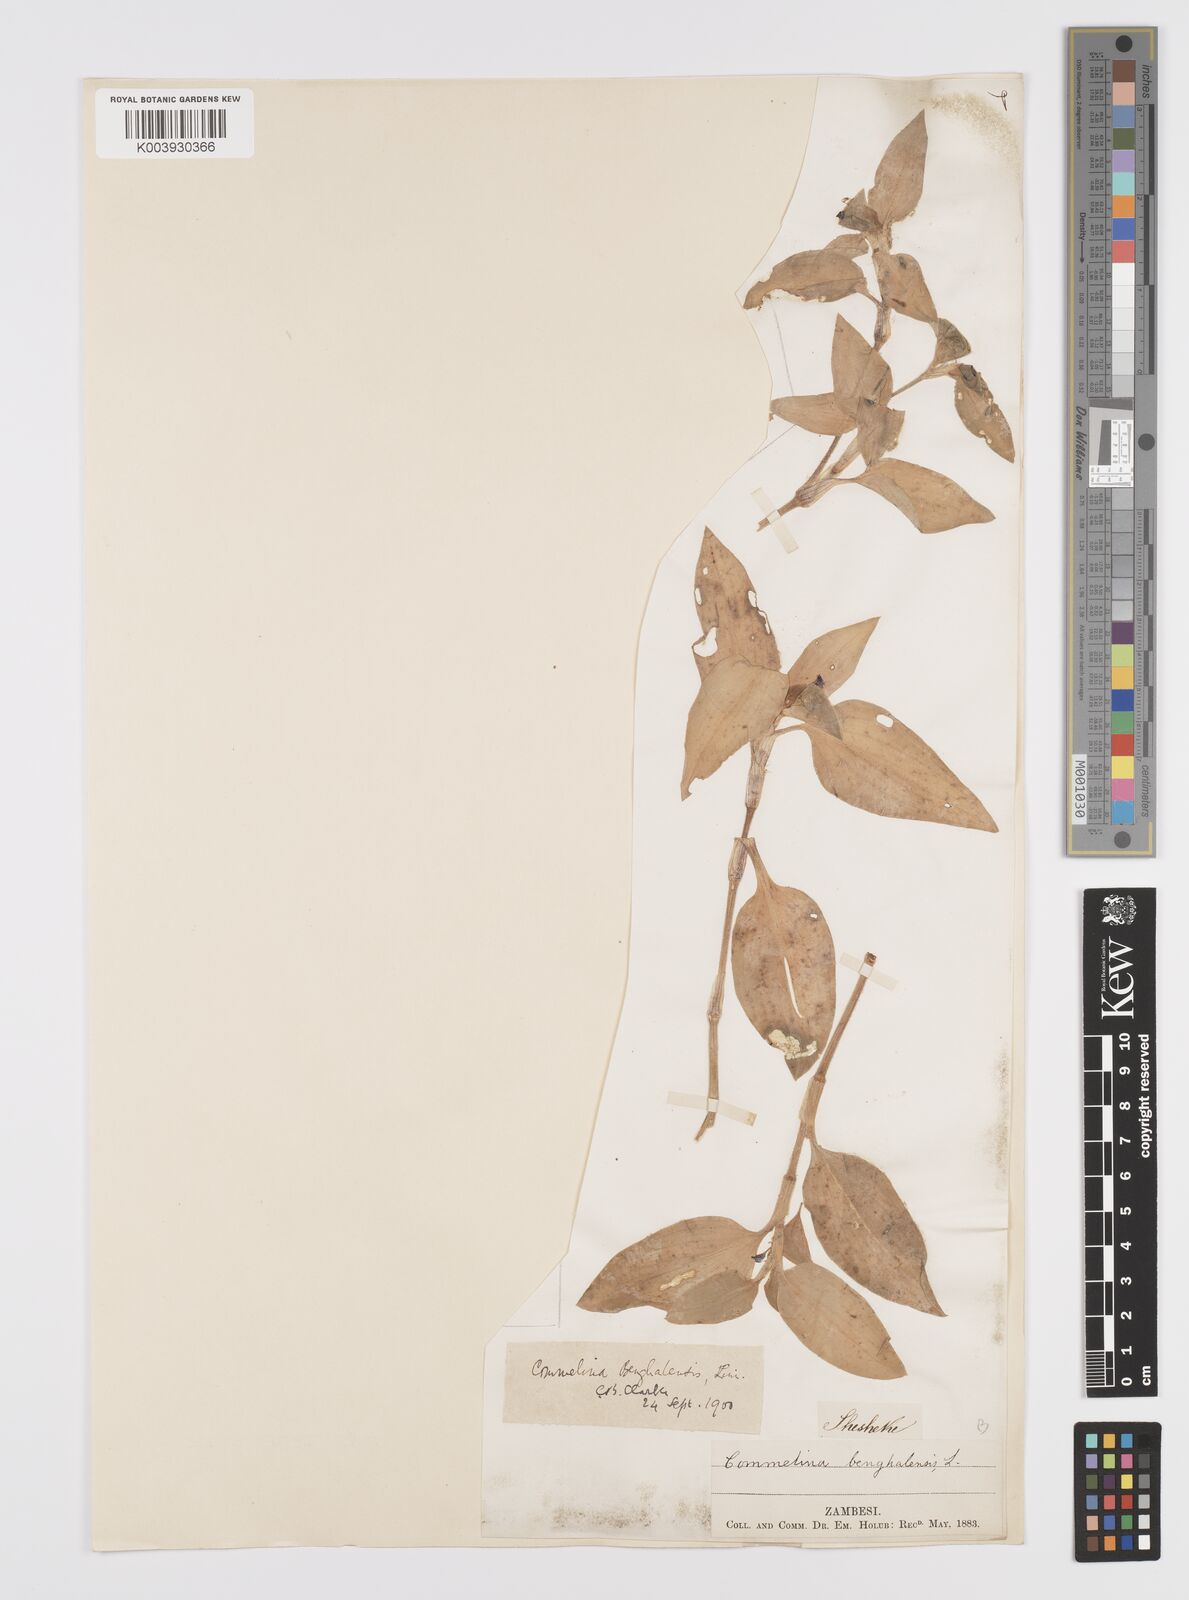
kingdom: Plantae
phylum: Tracheophyta
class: Liliopsida
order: Commelinales
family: Commelinaceae
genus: Commelina
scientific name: Commelina benghalensis
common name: Jio
